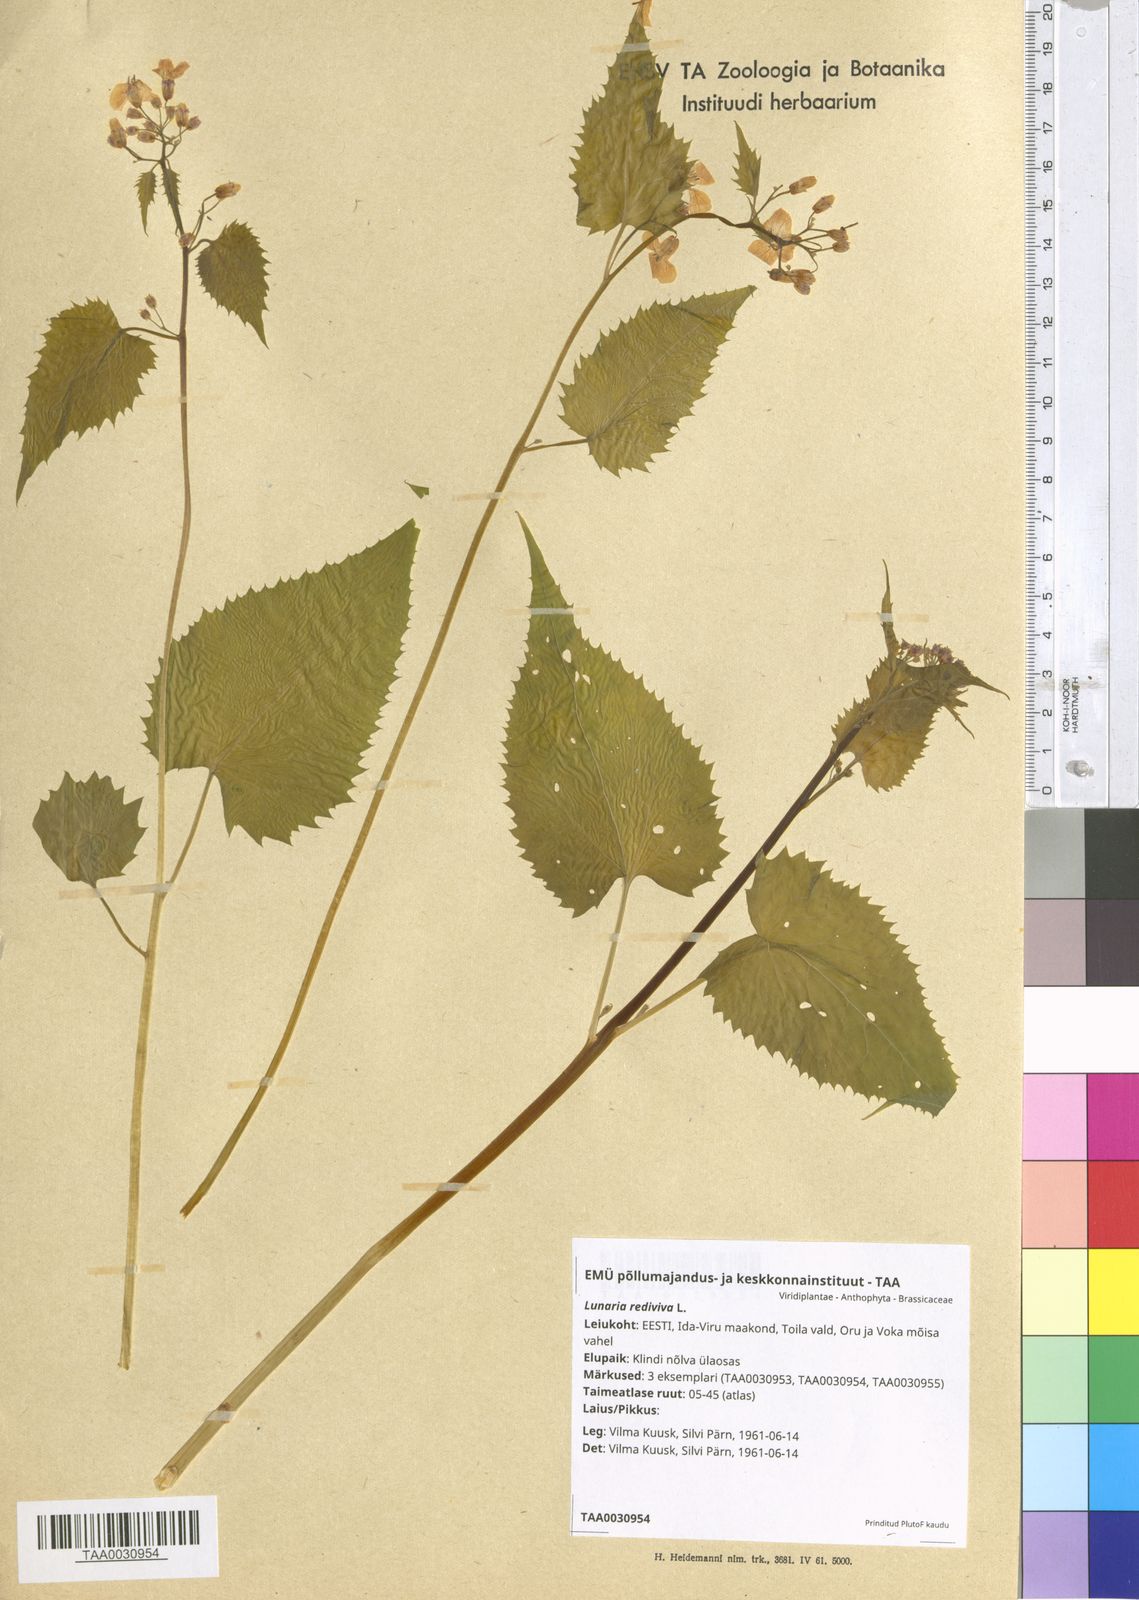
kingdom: Plantae
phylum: Tracheophyta
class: Magnoliopsida
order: Brassicales
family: Brassicaceae
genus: Lunaria
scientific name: Lunaria rediviva
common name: Perennial honesty
